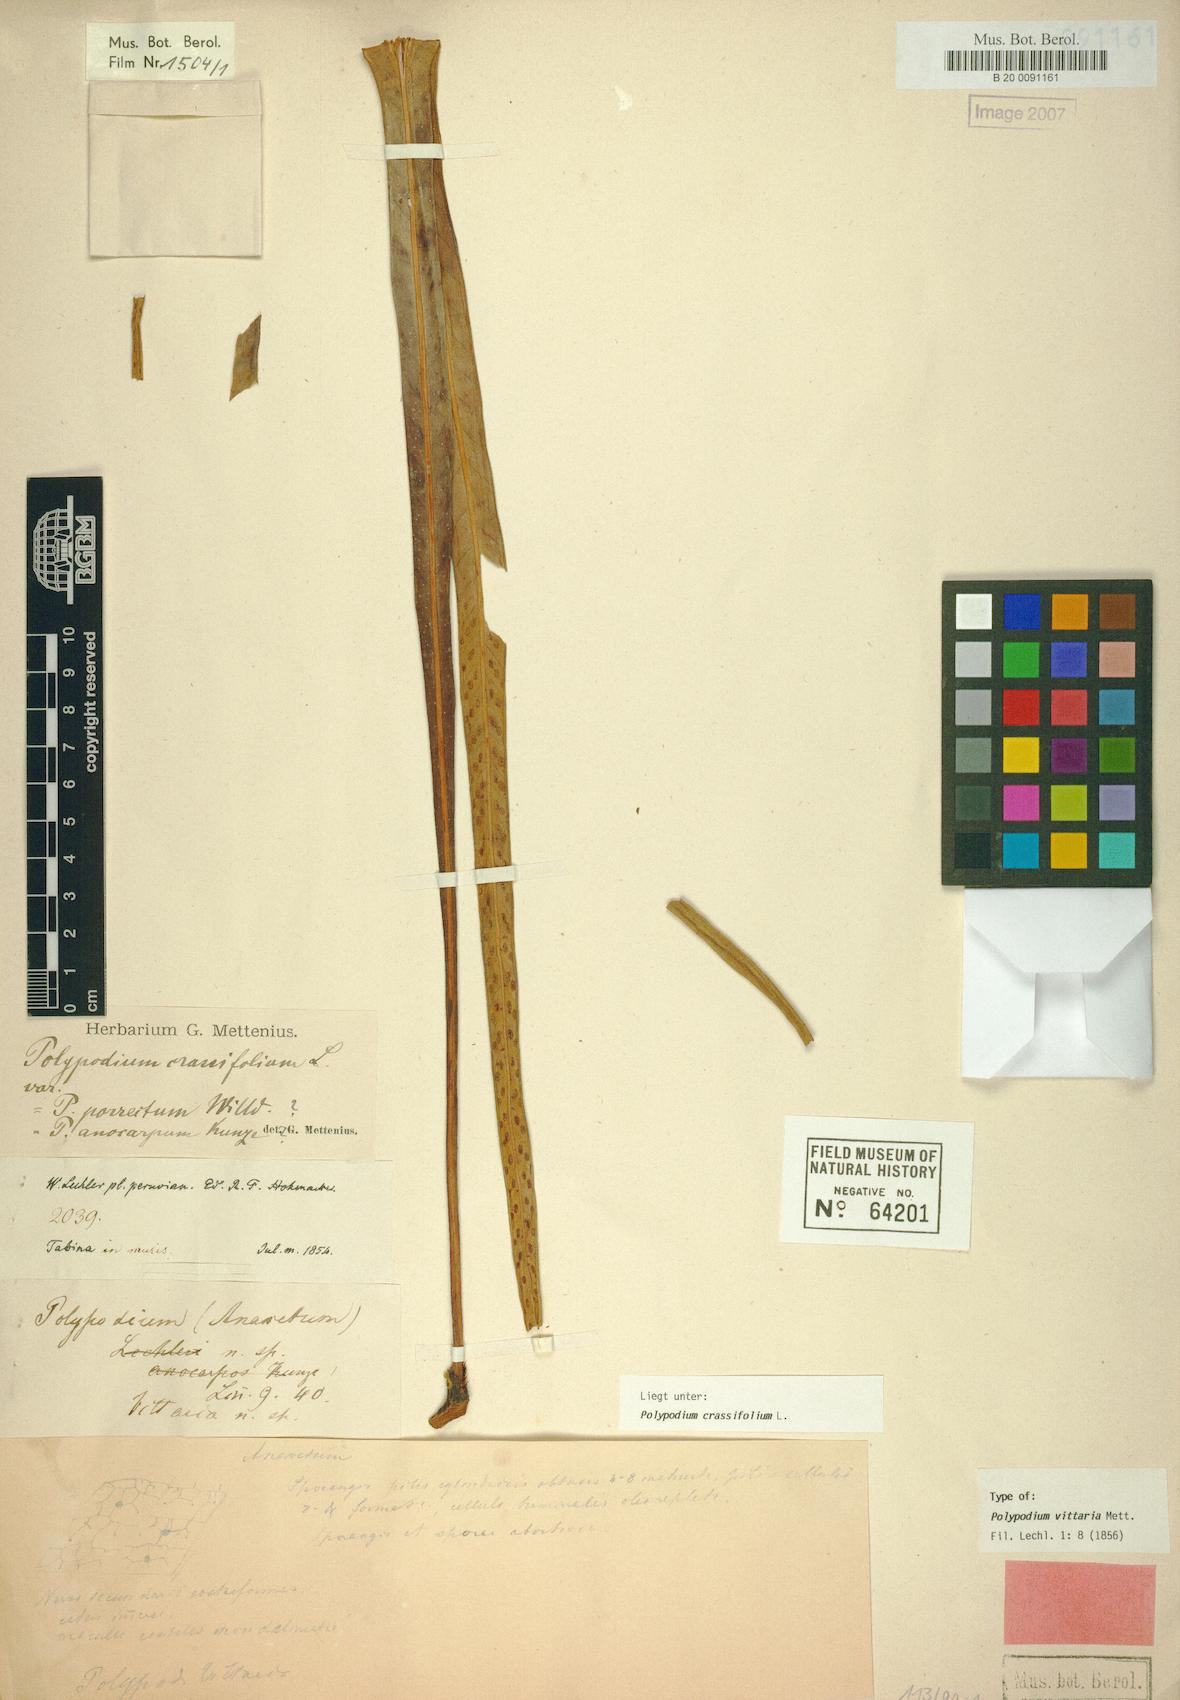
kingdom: Plantae
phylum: Tracheophyta
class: Polypodiopsida
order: Polypodiales
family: Polypodiaceae
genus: Niphidium
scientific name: Niphidium vittaria
